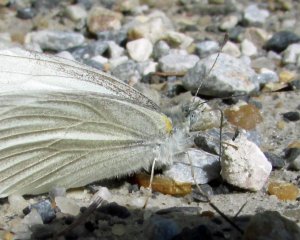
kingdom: Animalia
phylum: Arthropoda
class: Insecta
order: Lepidoptera
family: Pieridae
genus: Pieris
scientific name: Pieris virginiensis
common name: West Virginia White
